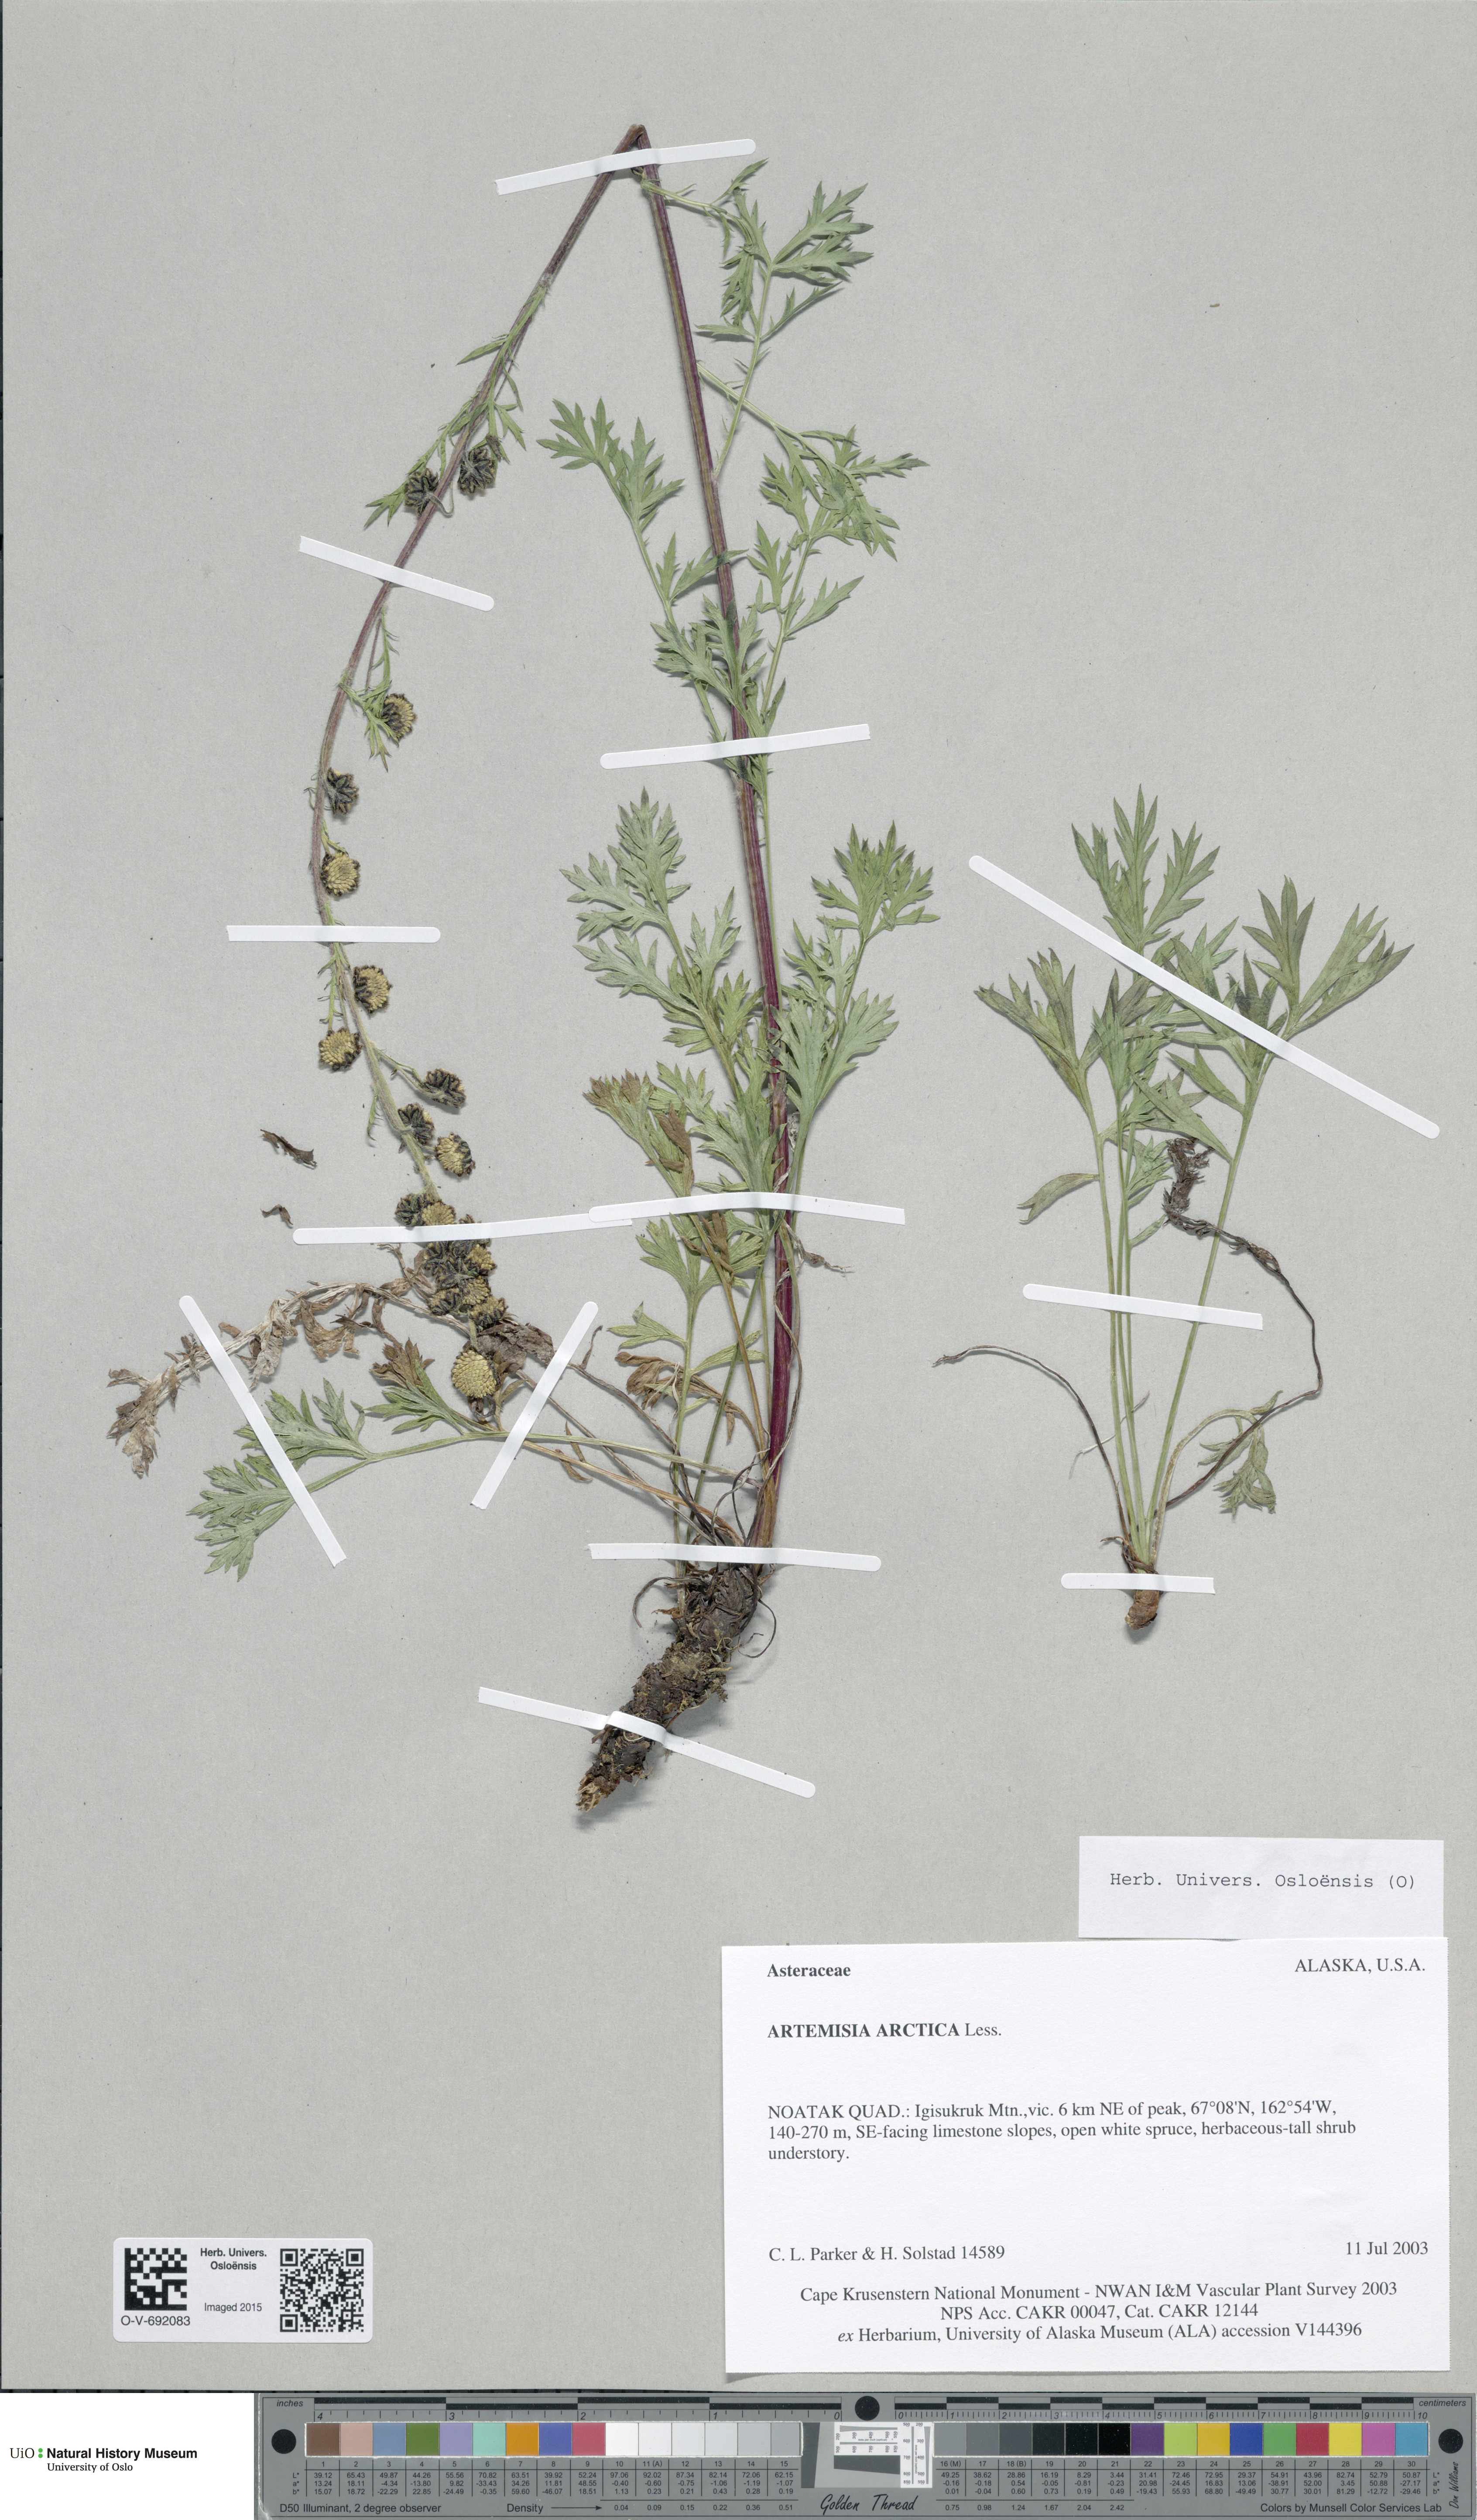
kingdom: Plantae
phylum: Tracheophyta
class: Magnoliopsida
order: Asterales
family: Asteraceae
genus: Artemisia
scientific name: Artemisia norvegica
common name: Norwegian mugwort
